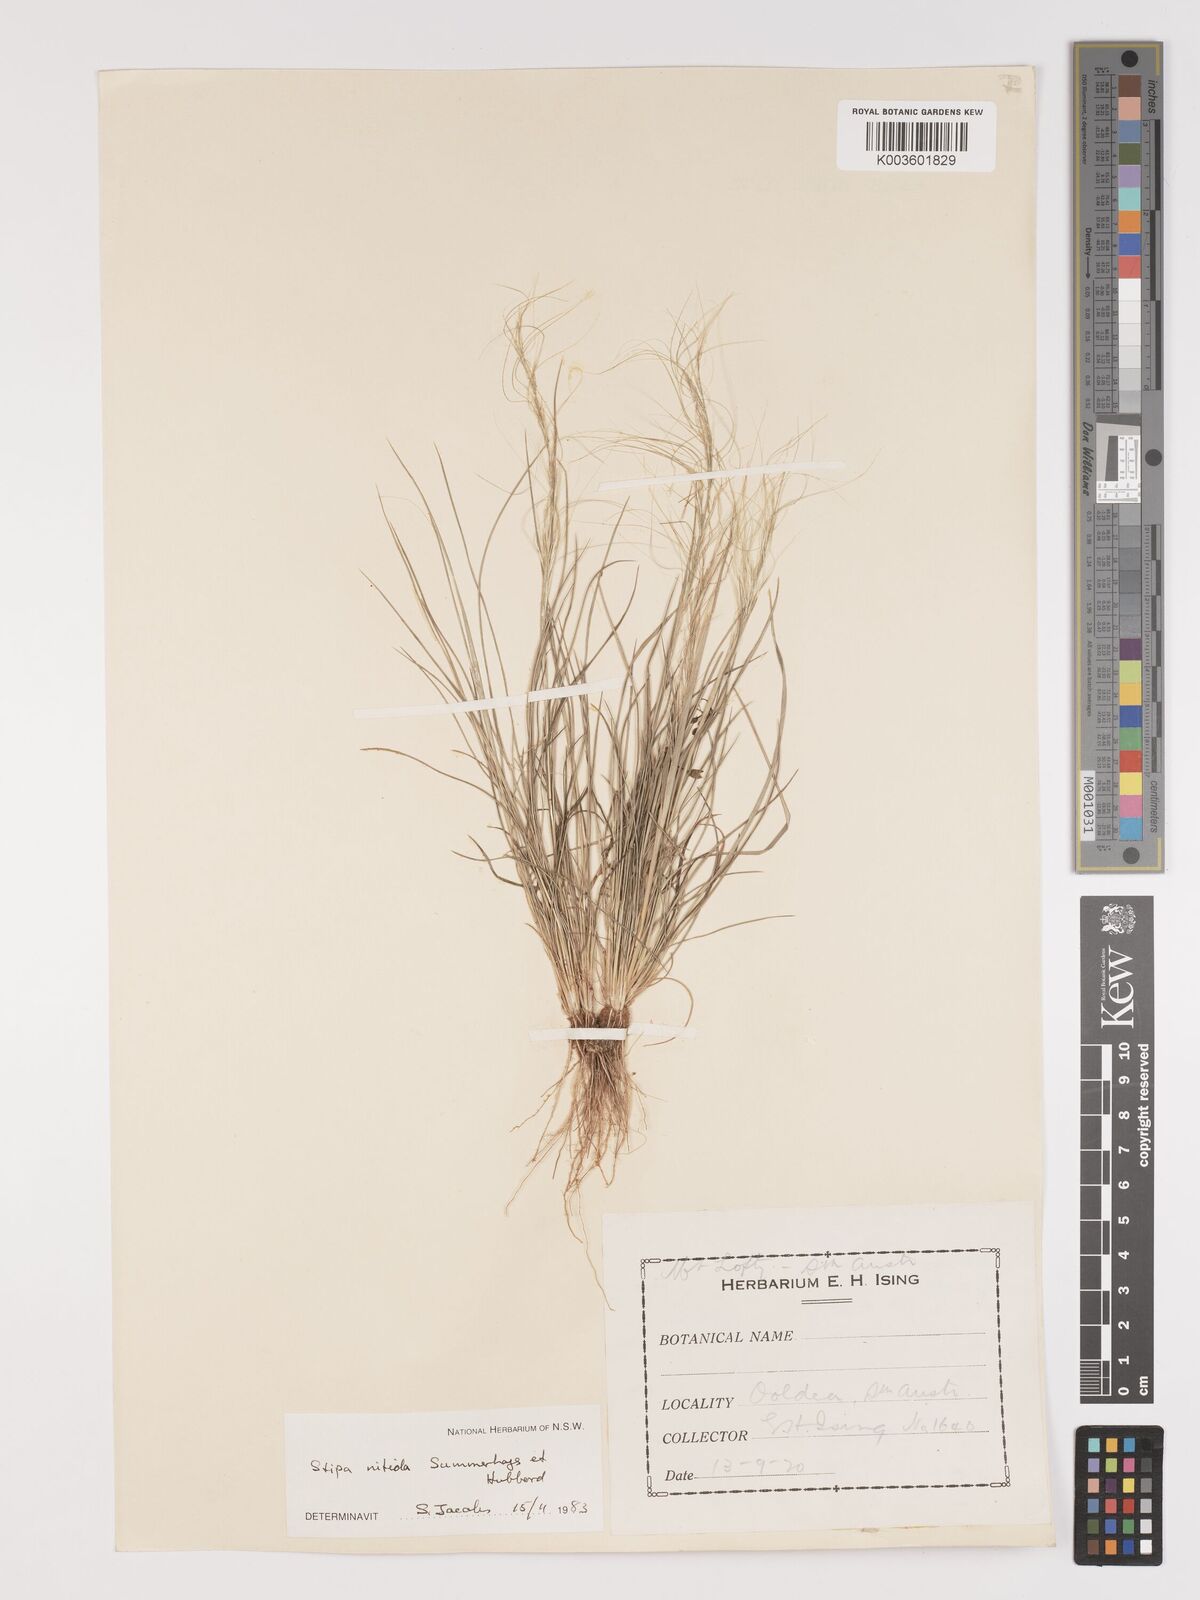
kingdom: Plantae
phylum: Tracheophyta
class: Liliopsida
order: Poales
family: Poaceae
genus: Austrostipa
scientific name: Austrostipa nitida
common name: Balcarra grass
